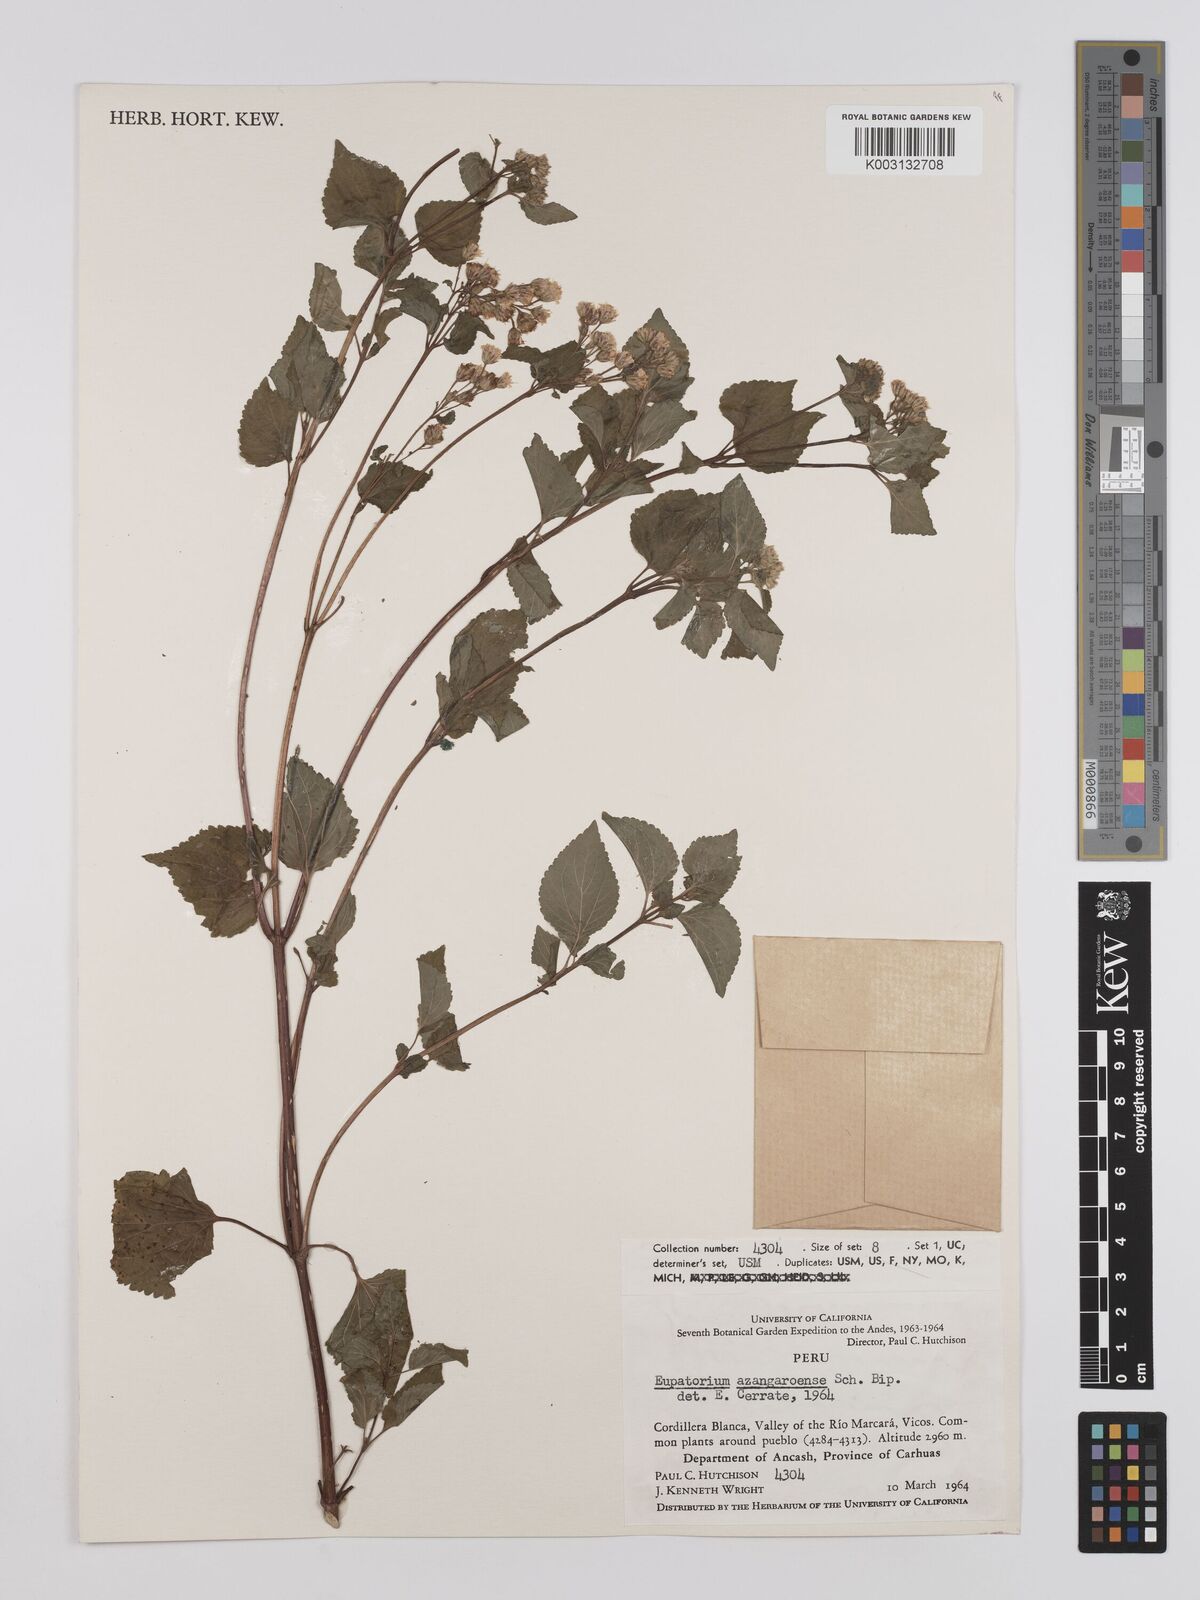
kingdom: Plantae
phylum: Tracheophyta
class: Magnoliopsida
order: Asterales
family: Asteraceae
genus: Ageratina
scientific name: Ageratina glechonophylla
